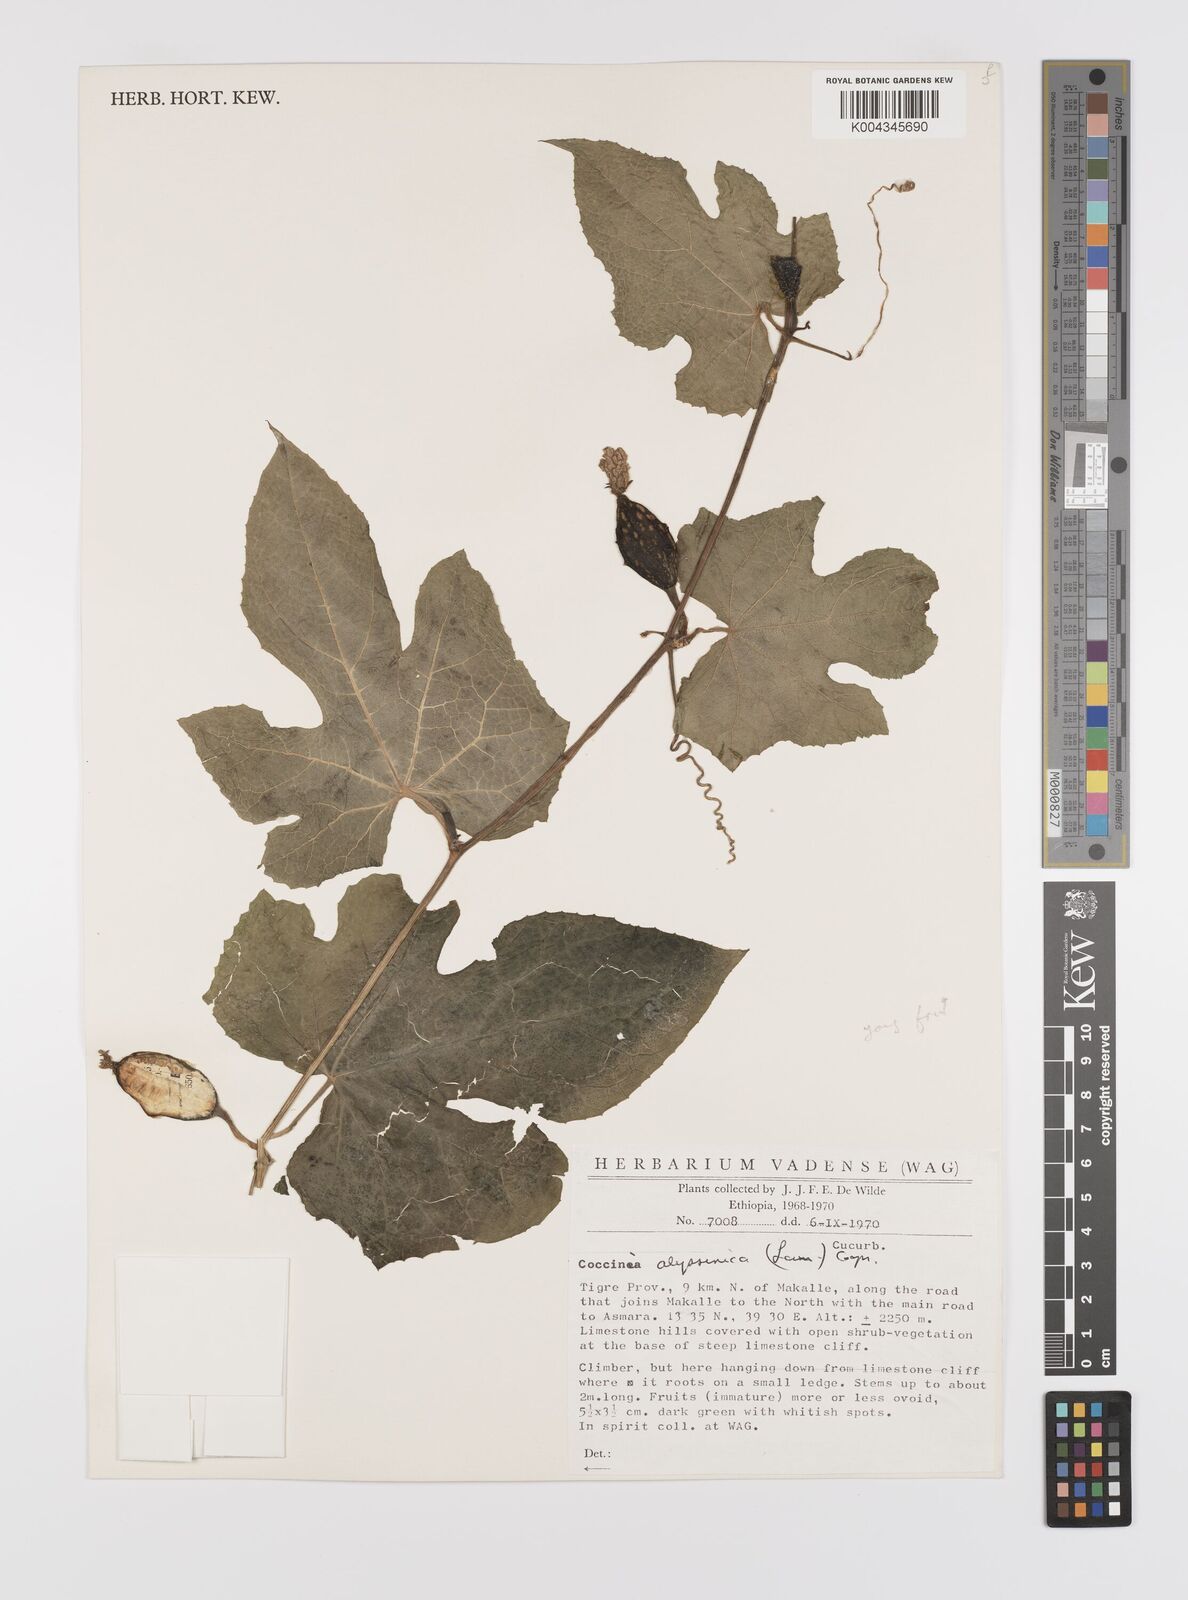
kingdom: Plantae
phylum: Tracheophyta
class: Magnoliopsida
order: Cucurbitales
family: Cucurbitaceae
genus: Coccinia
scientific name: Coccinia abyssinica
